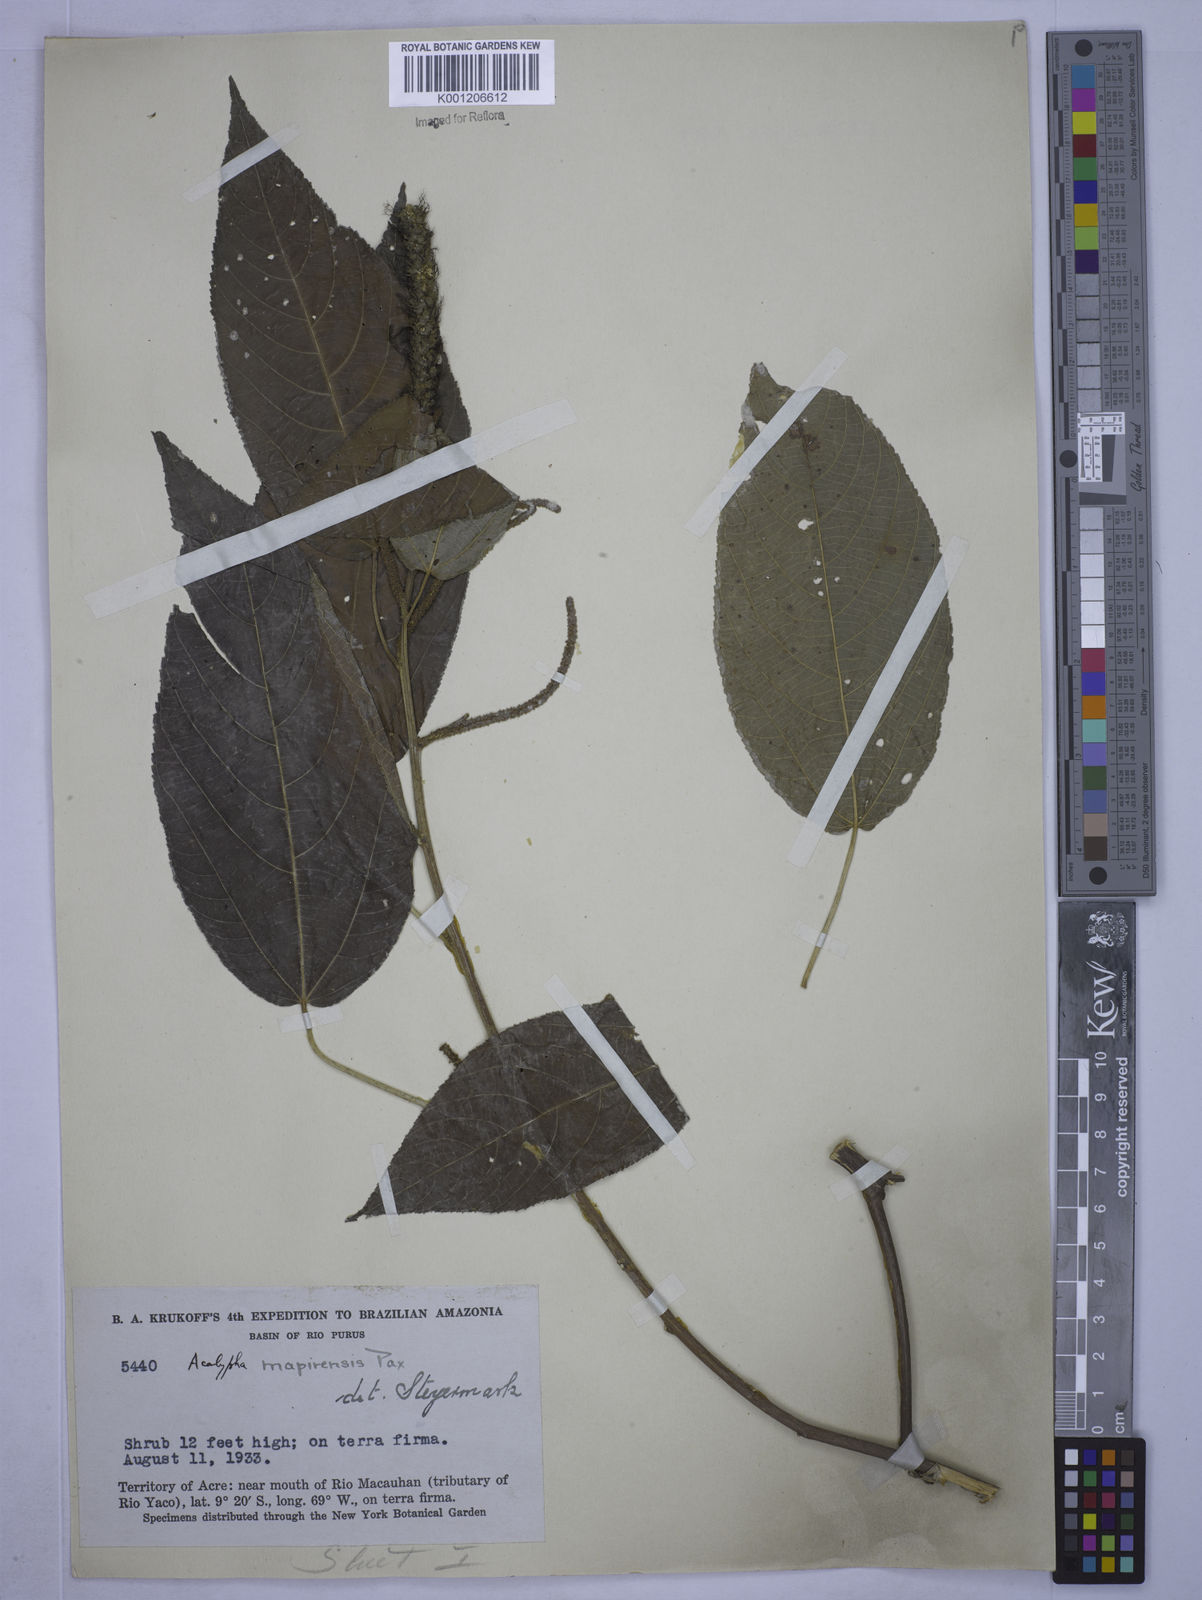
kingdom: Plantae
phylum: Tracheophyta
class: Magnoliopsida
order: Malpighiales
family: Euphorbiaceae
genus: Acalypha
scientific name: Acalypha stricta
